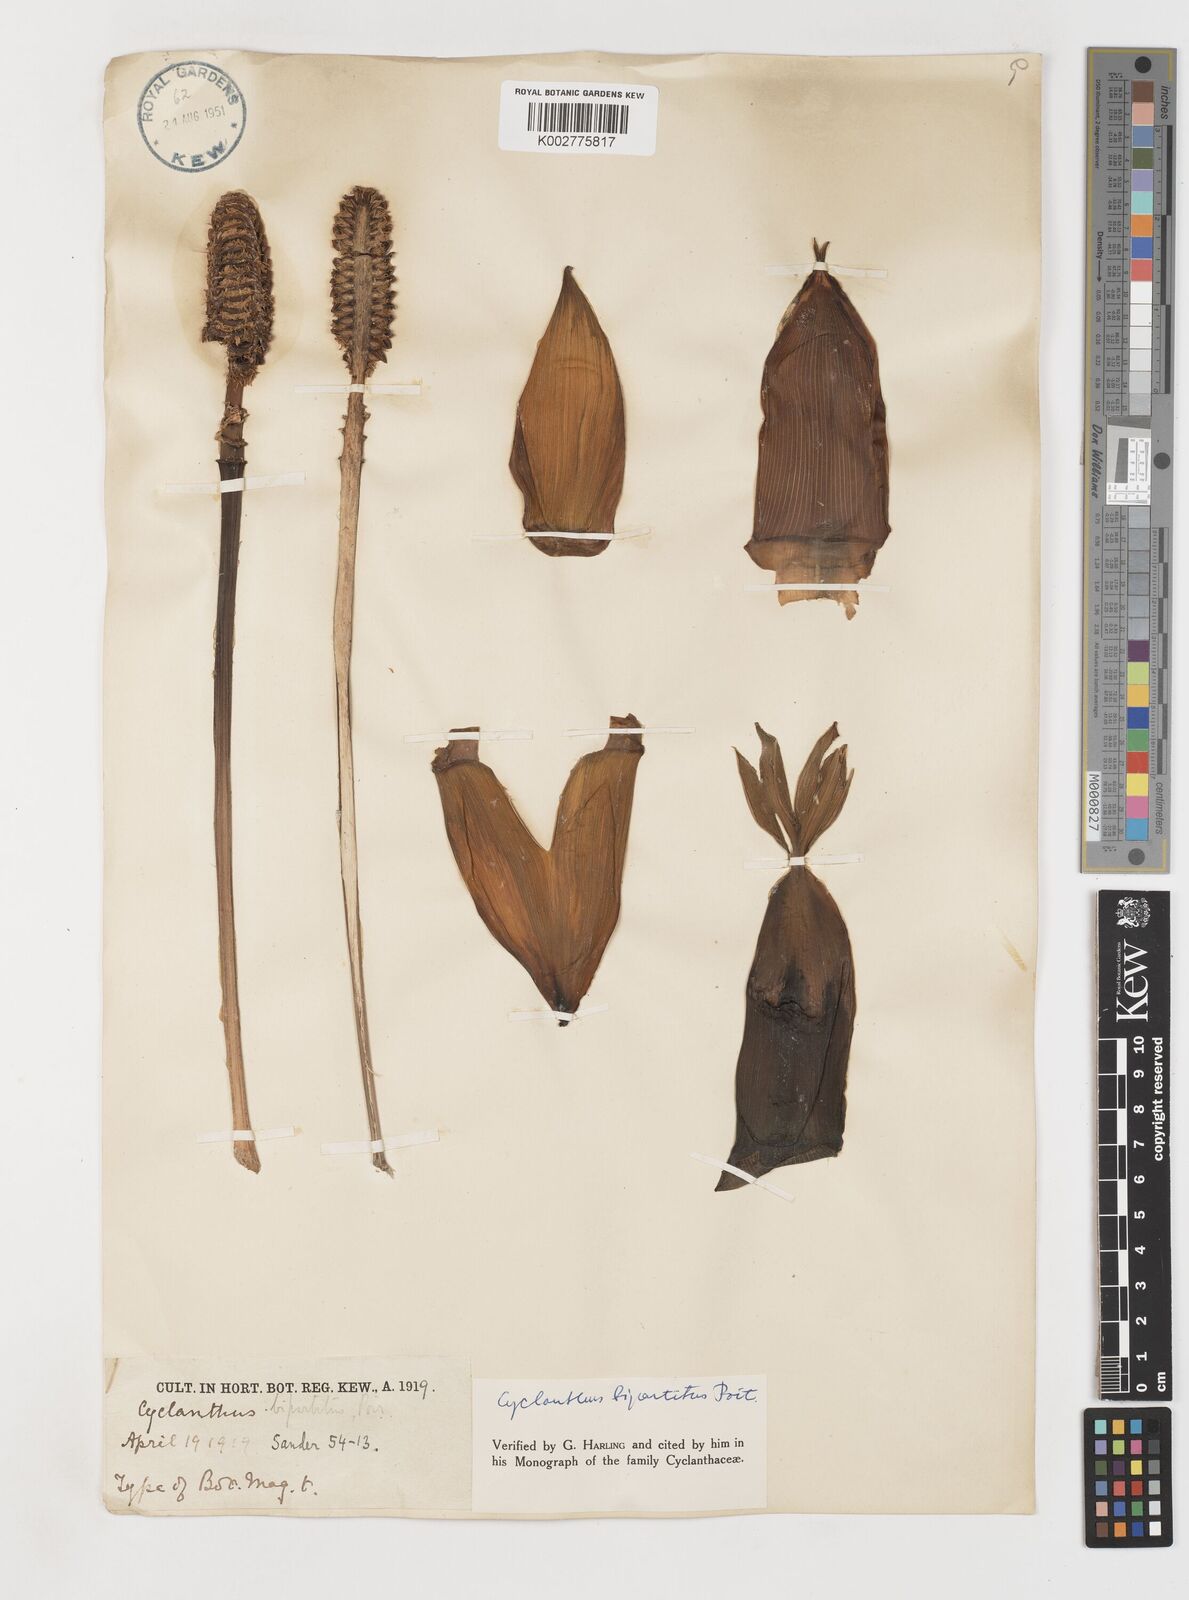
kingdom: Plantae
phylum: Tracheophyta
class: Liliopsida
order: Pandanales
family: Cyclanthaceae
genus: Cyclanthus
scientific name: Cyclanthus bipartitus
